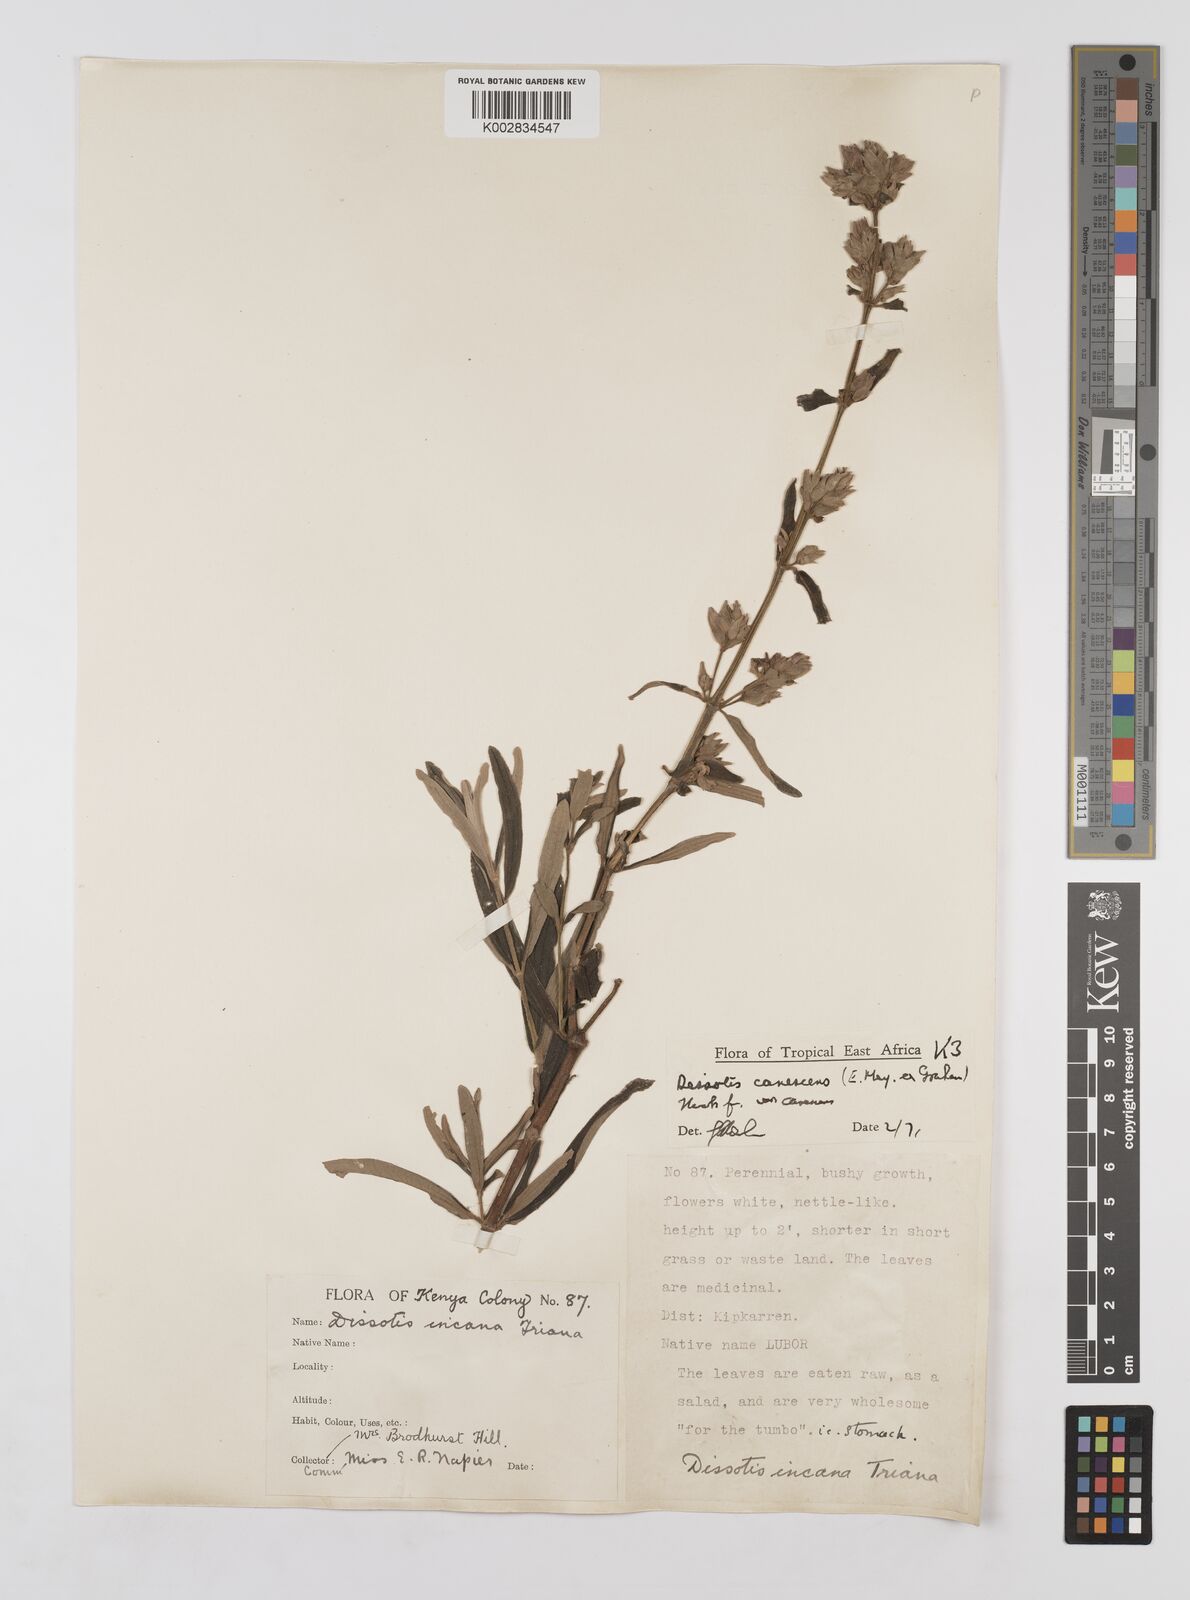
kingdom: Plantae
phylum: Tracheophyta
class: Magnoliopsida
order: Myrtales
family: Melastomataceae
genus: Argyrella
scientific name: Argyrella canescens
